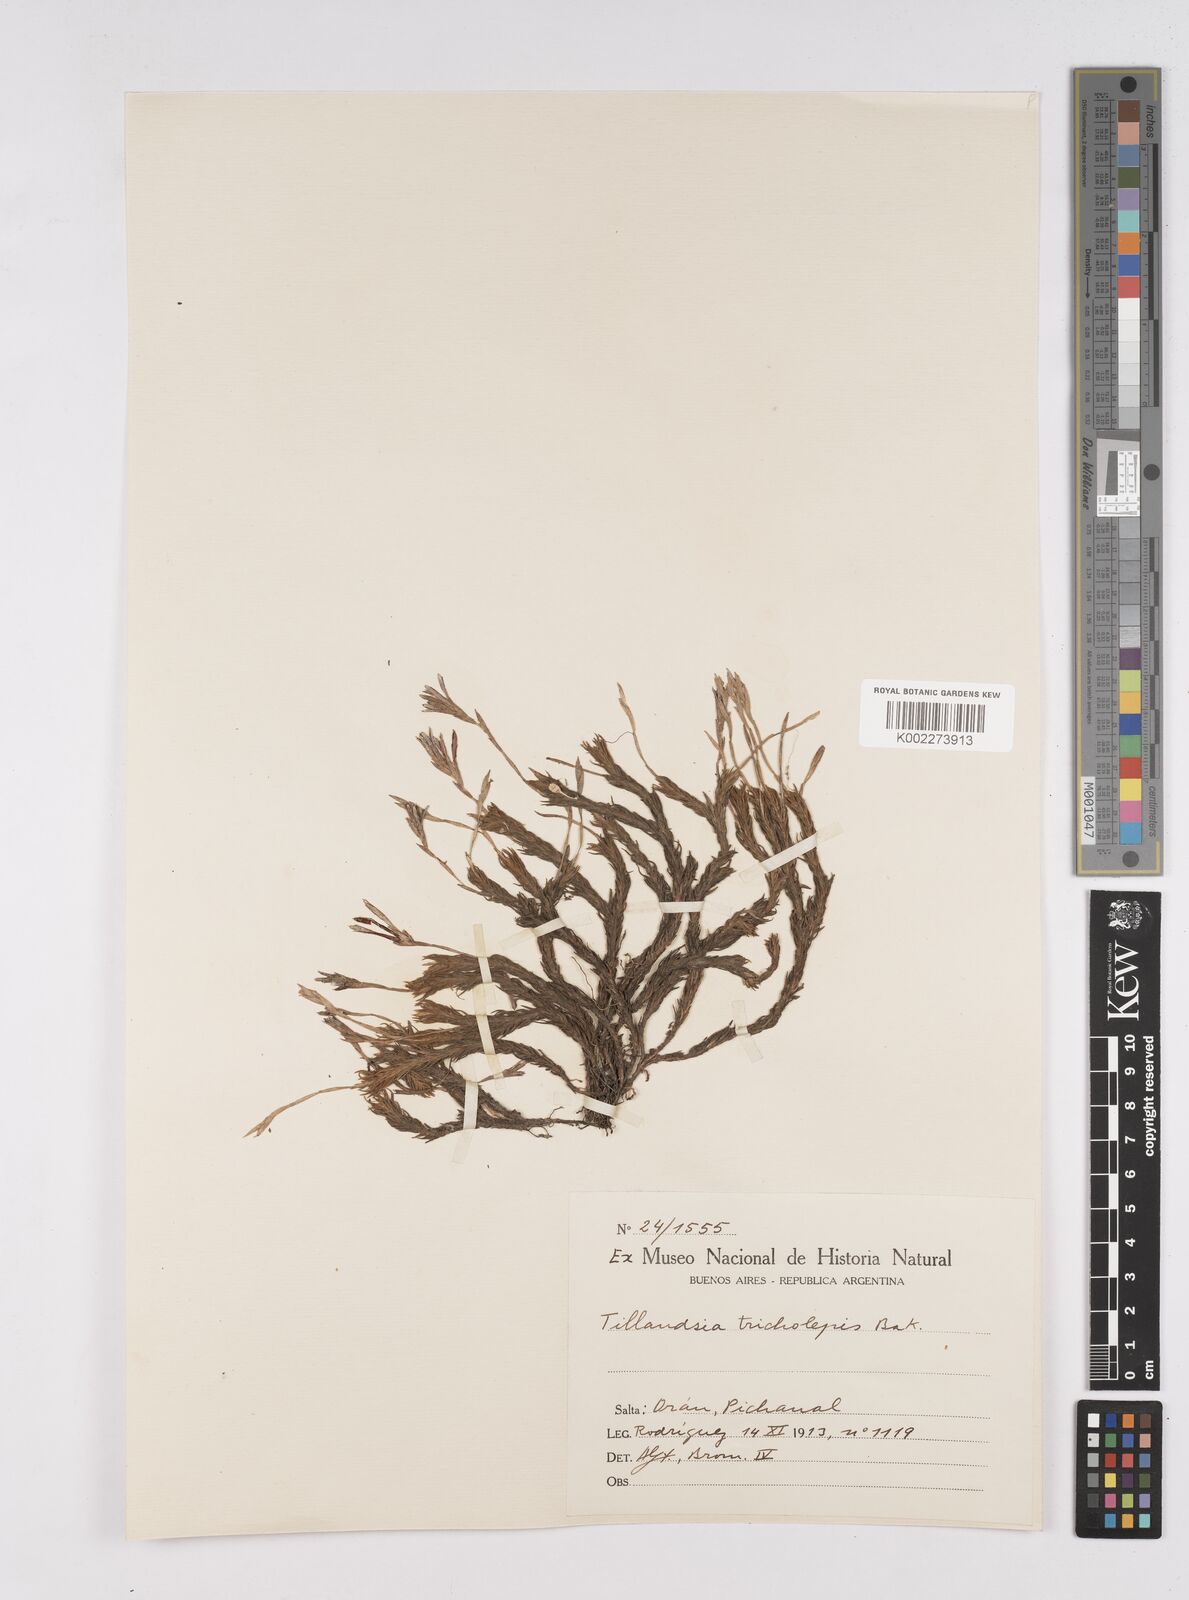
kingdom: Plantae
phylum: Tracheophyta
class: Liliopsida
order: Poales
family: Bromeliaceae
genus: Tillandsia
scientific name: Tillandsia tricholepis
